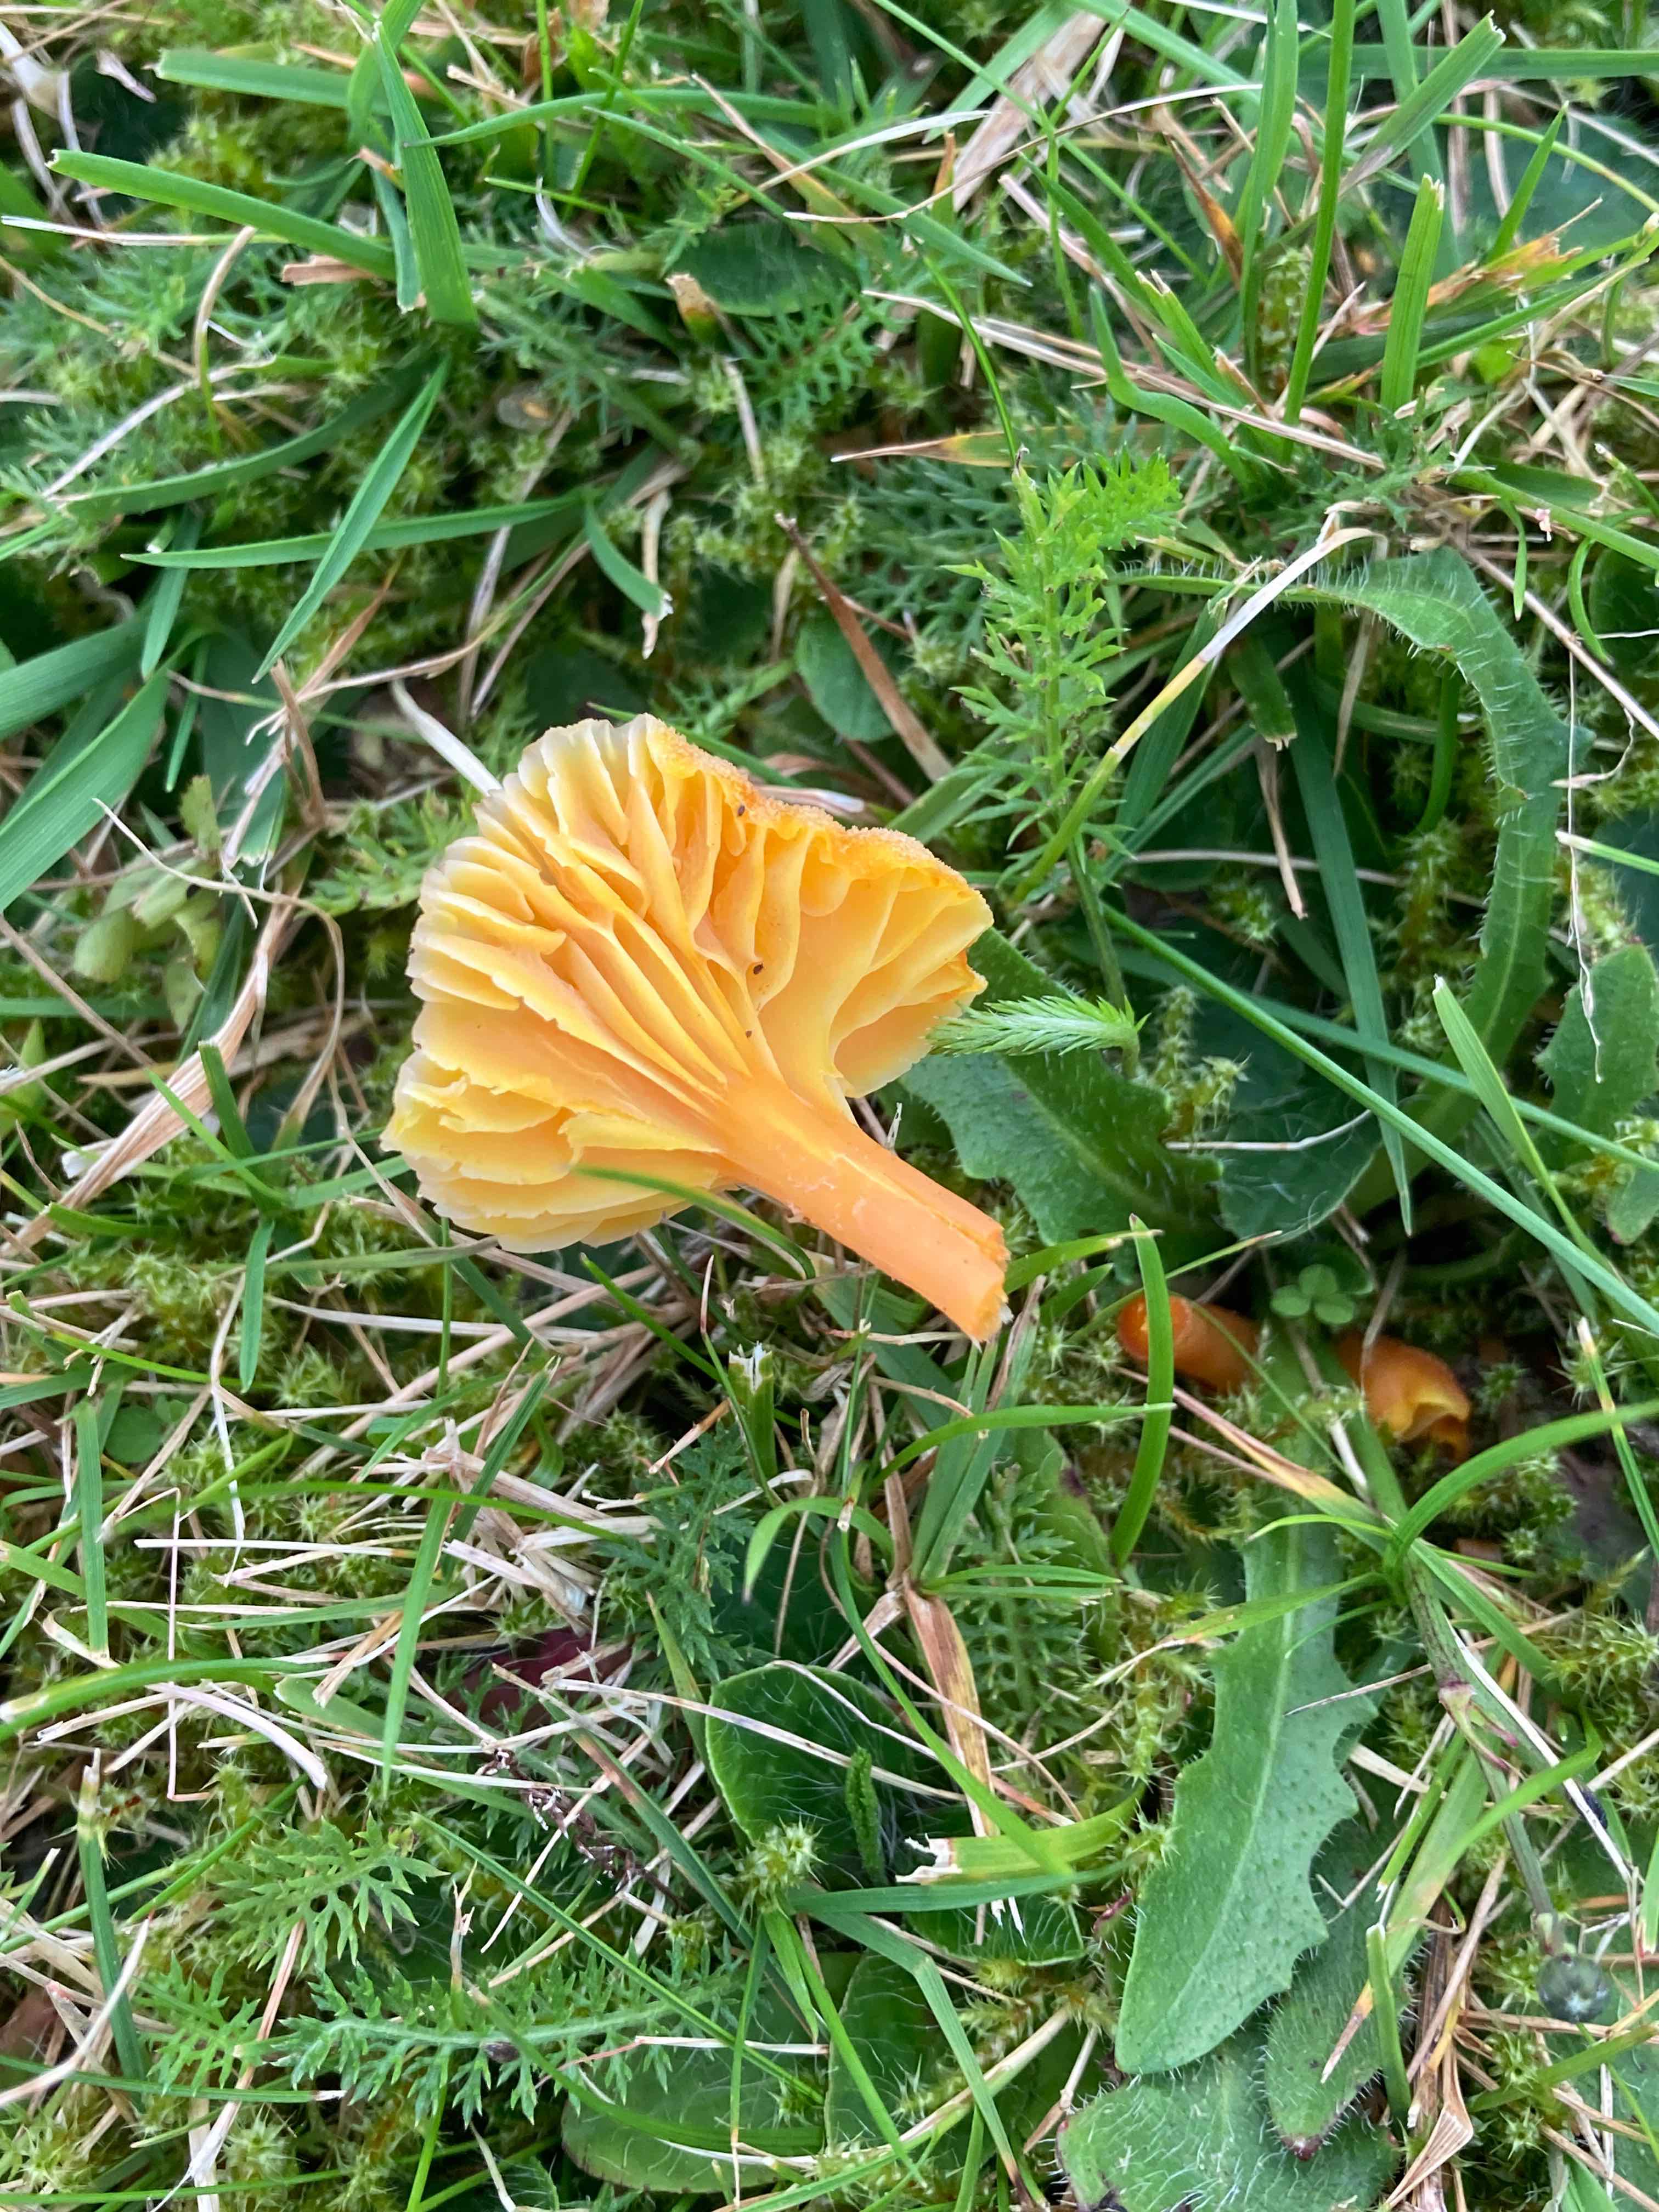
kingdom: Fungi
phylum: Basidiomycota
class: Agaricomycetes
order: Agaricales
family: Hygrophoraceae
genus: Hygrocybe
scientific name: Hygrocybe
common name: vokshat
